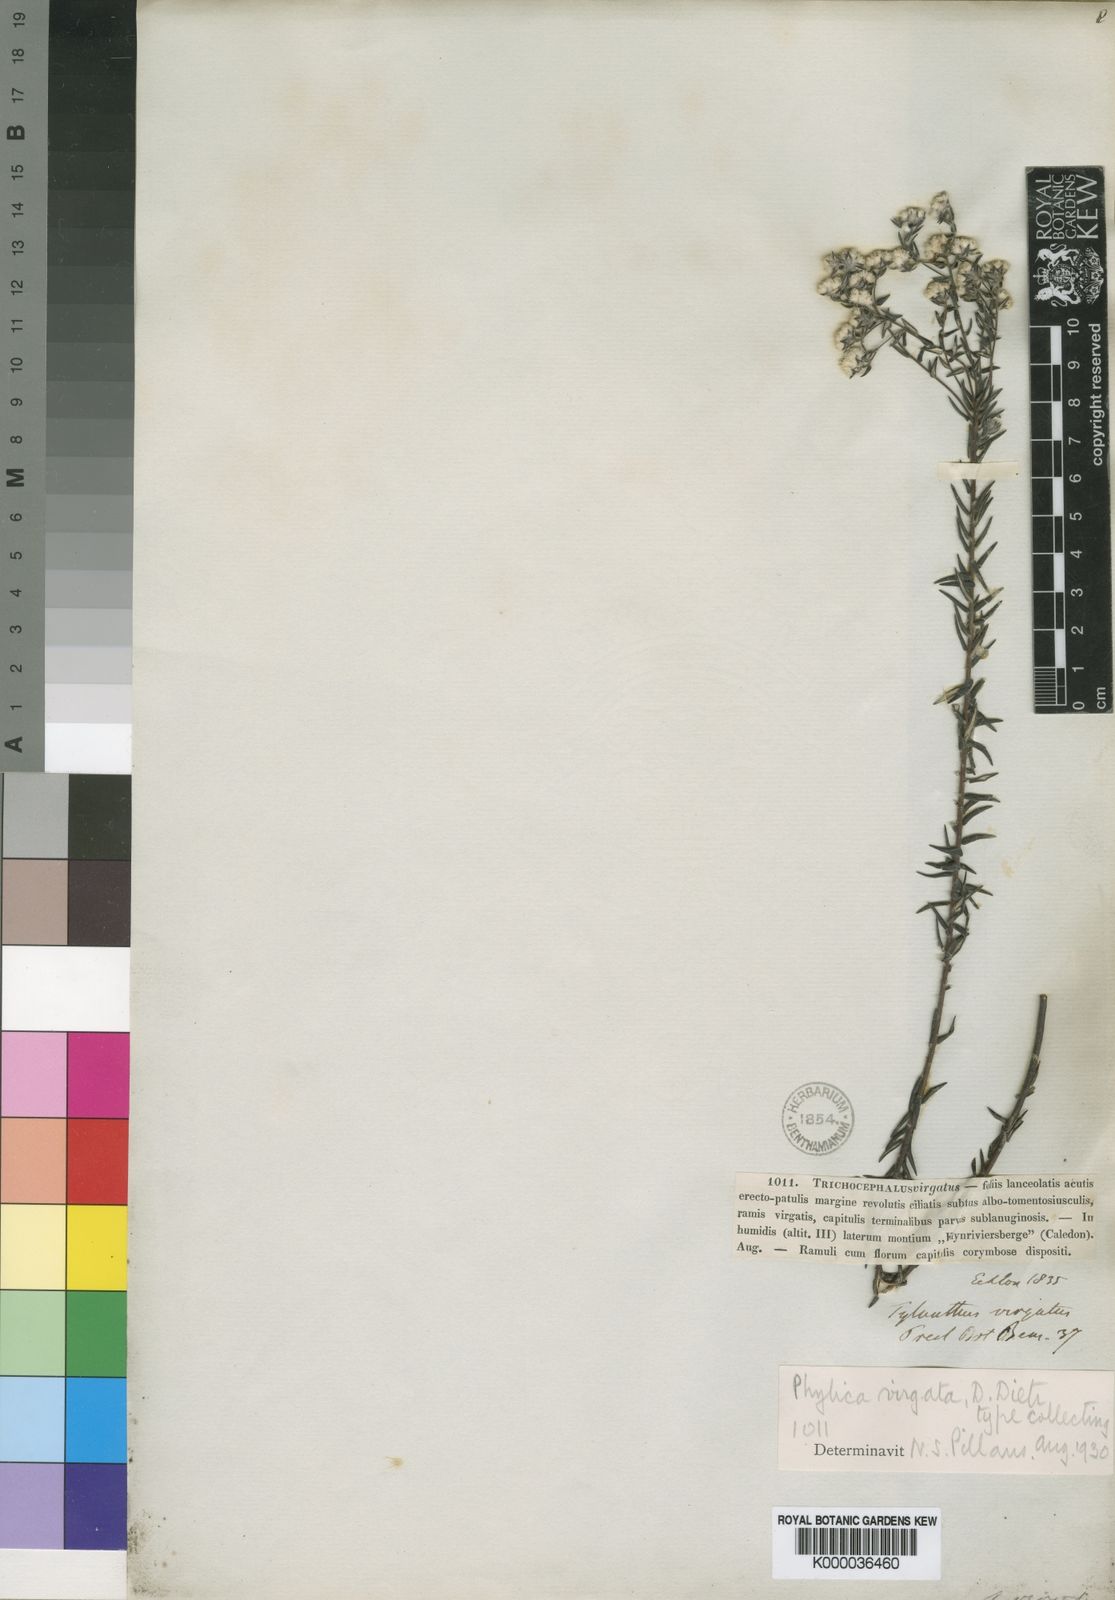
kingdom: Plantae
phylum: Tracheophyta
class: Magnoliopsida
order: Rosales
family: Rhamnaceae
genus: Phylica
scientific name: Phylica
